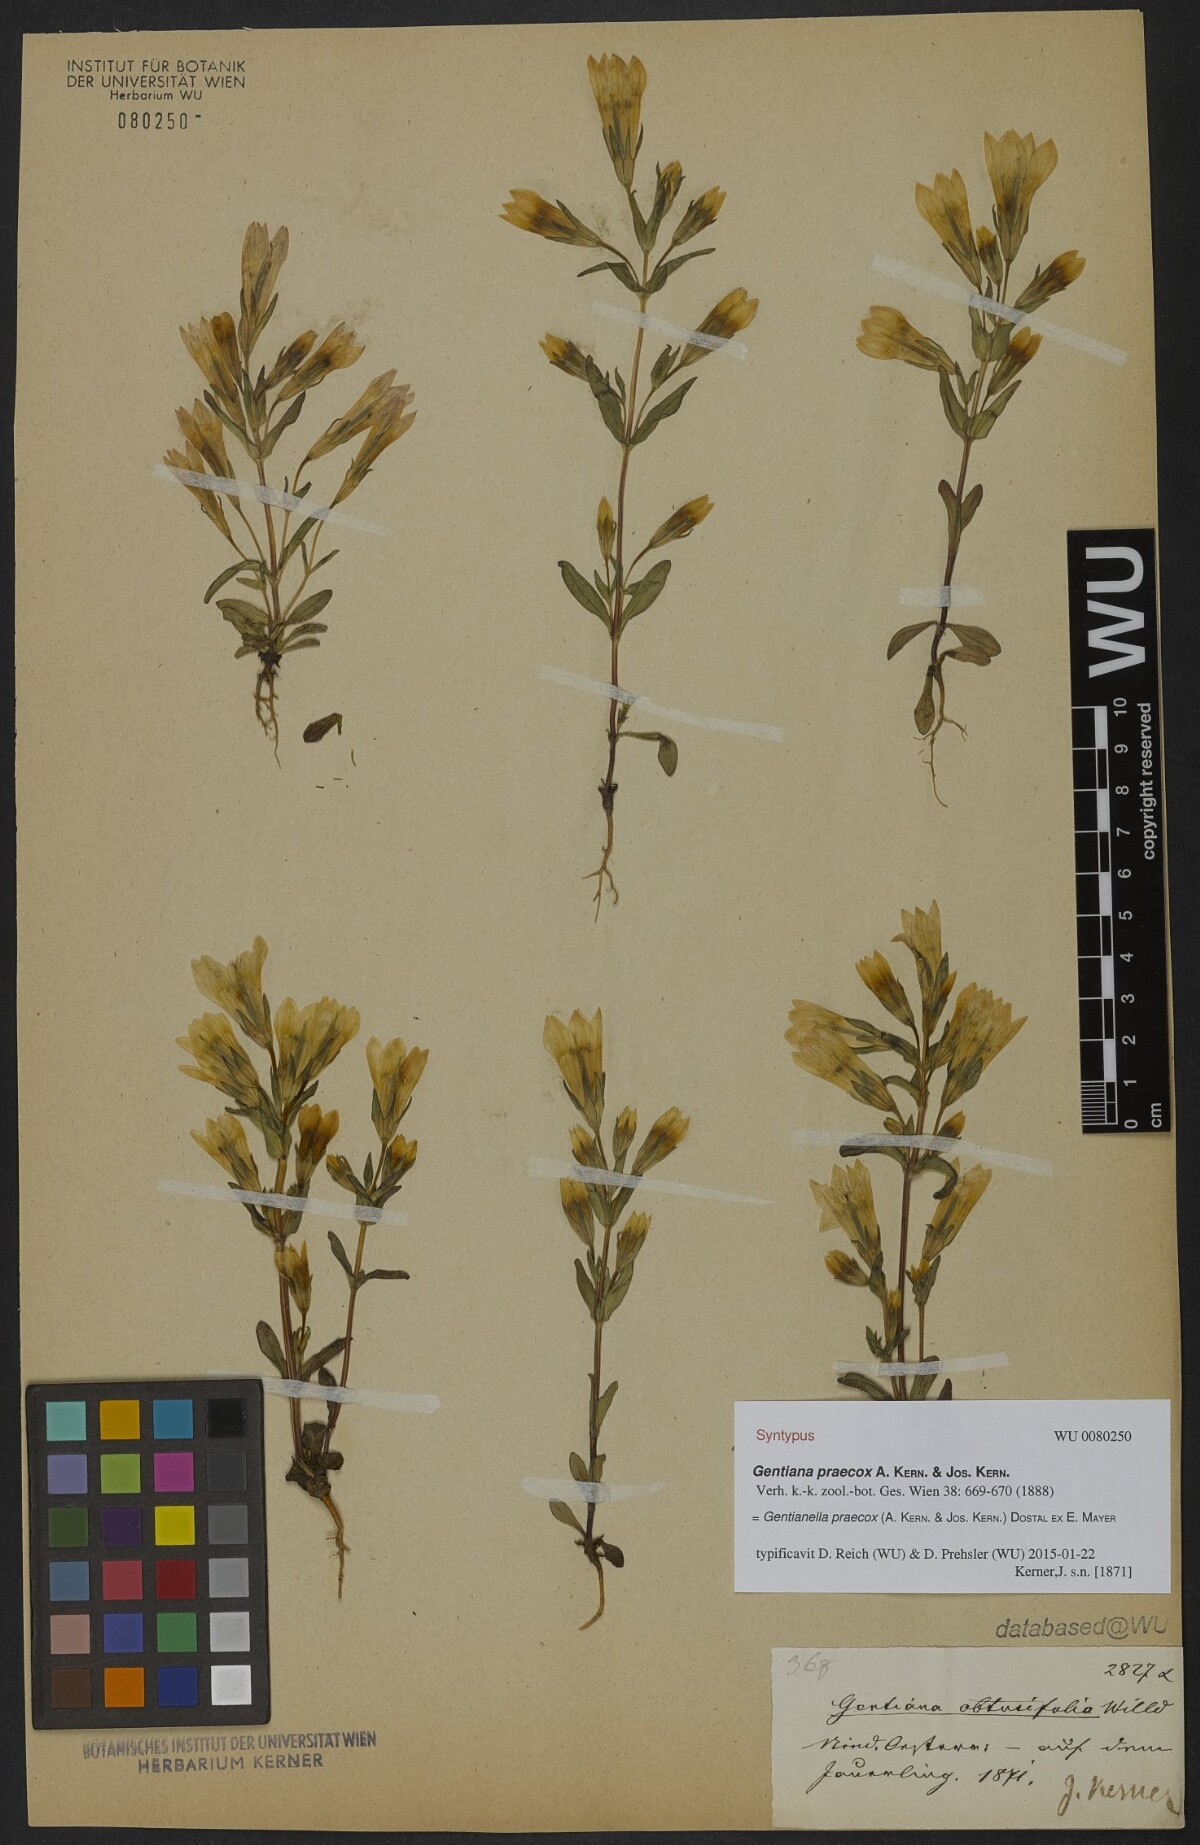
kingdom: Plantae
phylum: Tracheophyta
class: Magnoliopsida
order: Gentianales
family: Gentianaceae
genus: Gentianella
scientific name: Gentianella praecox
